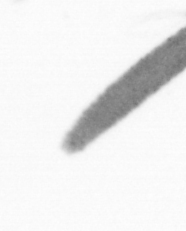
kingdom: Animalia
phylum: Arthropoda
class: Copepoda
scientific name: Copepoda
